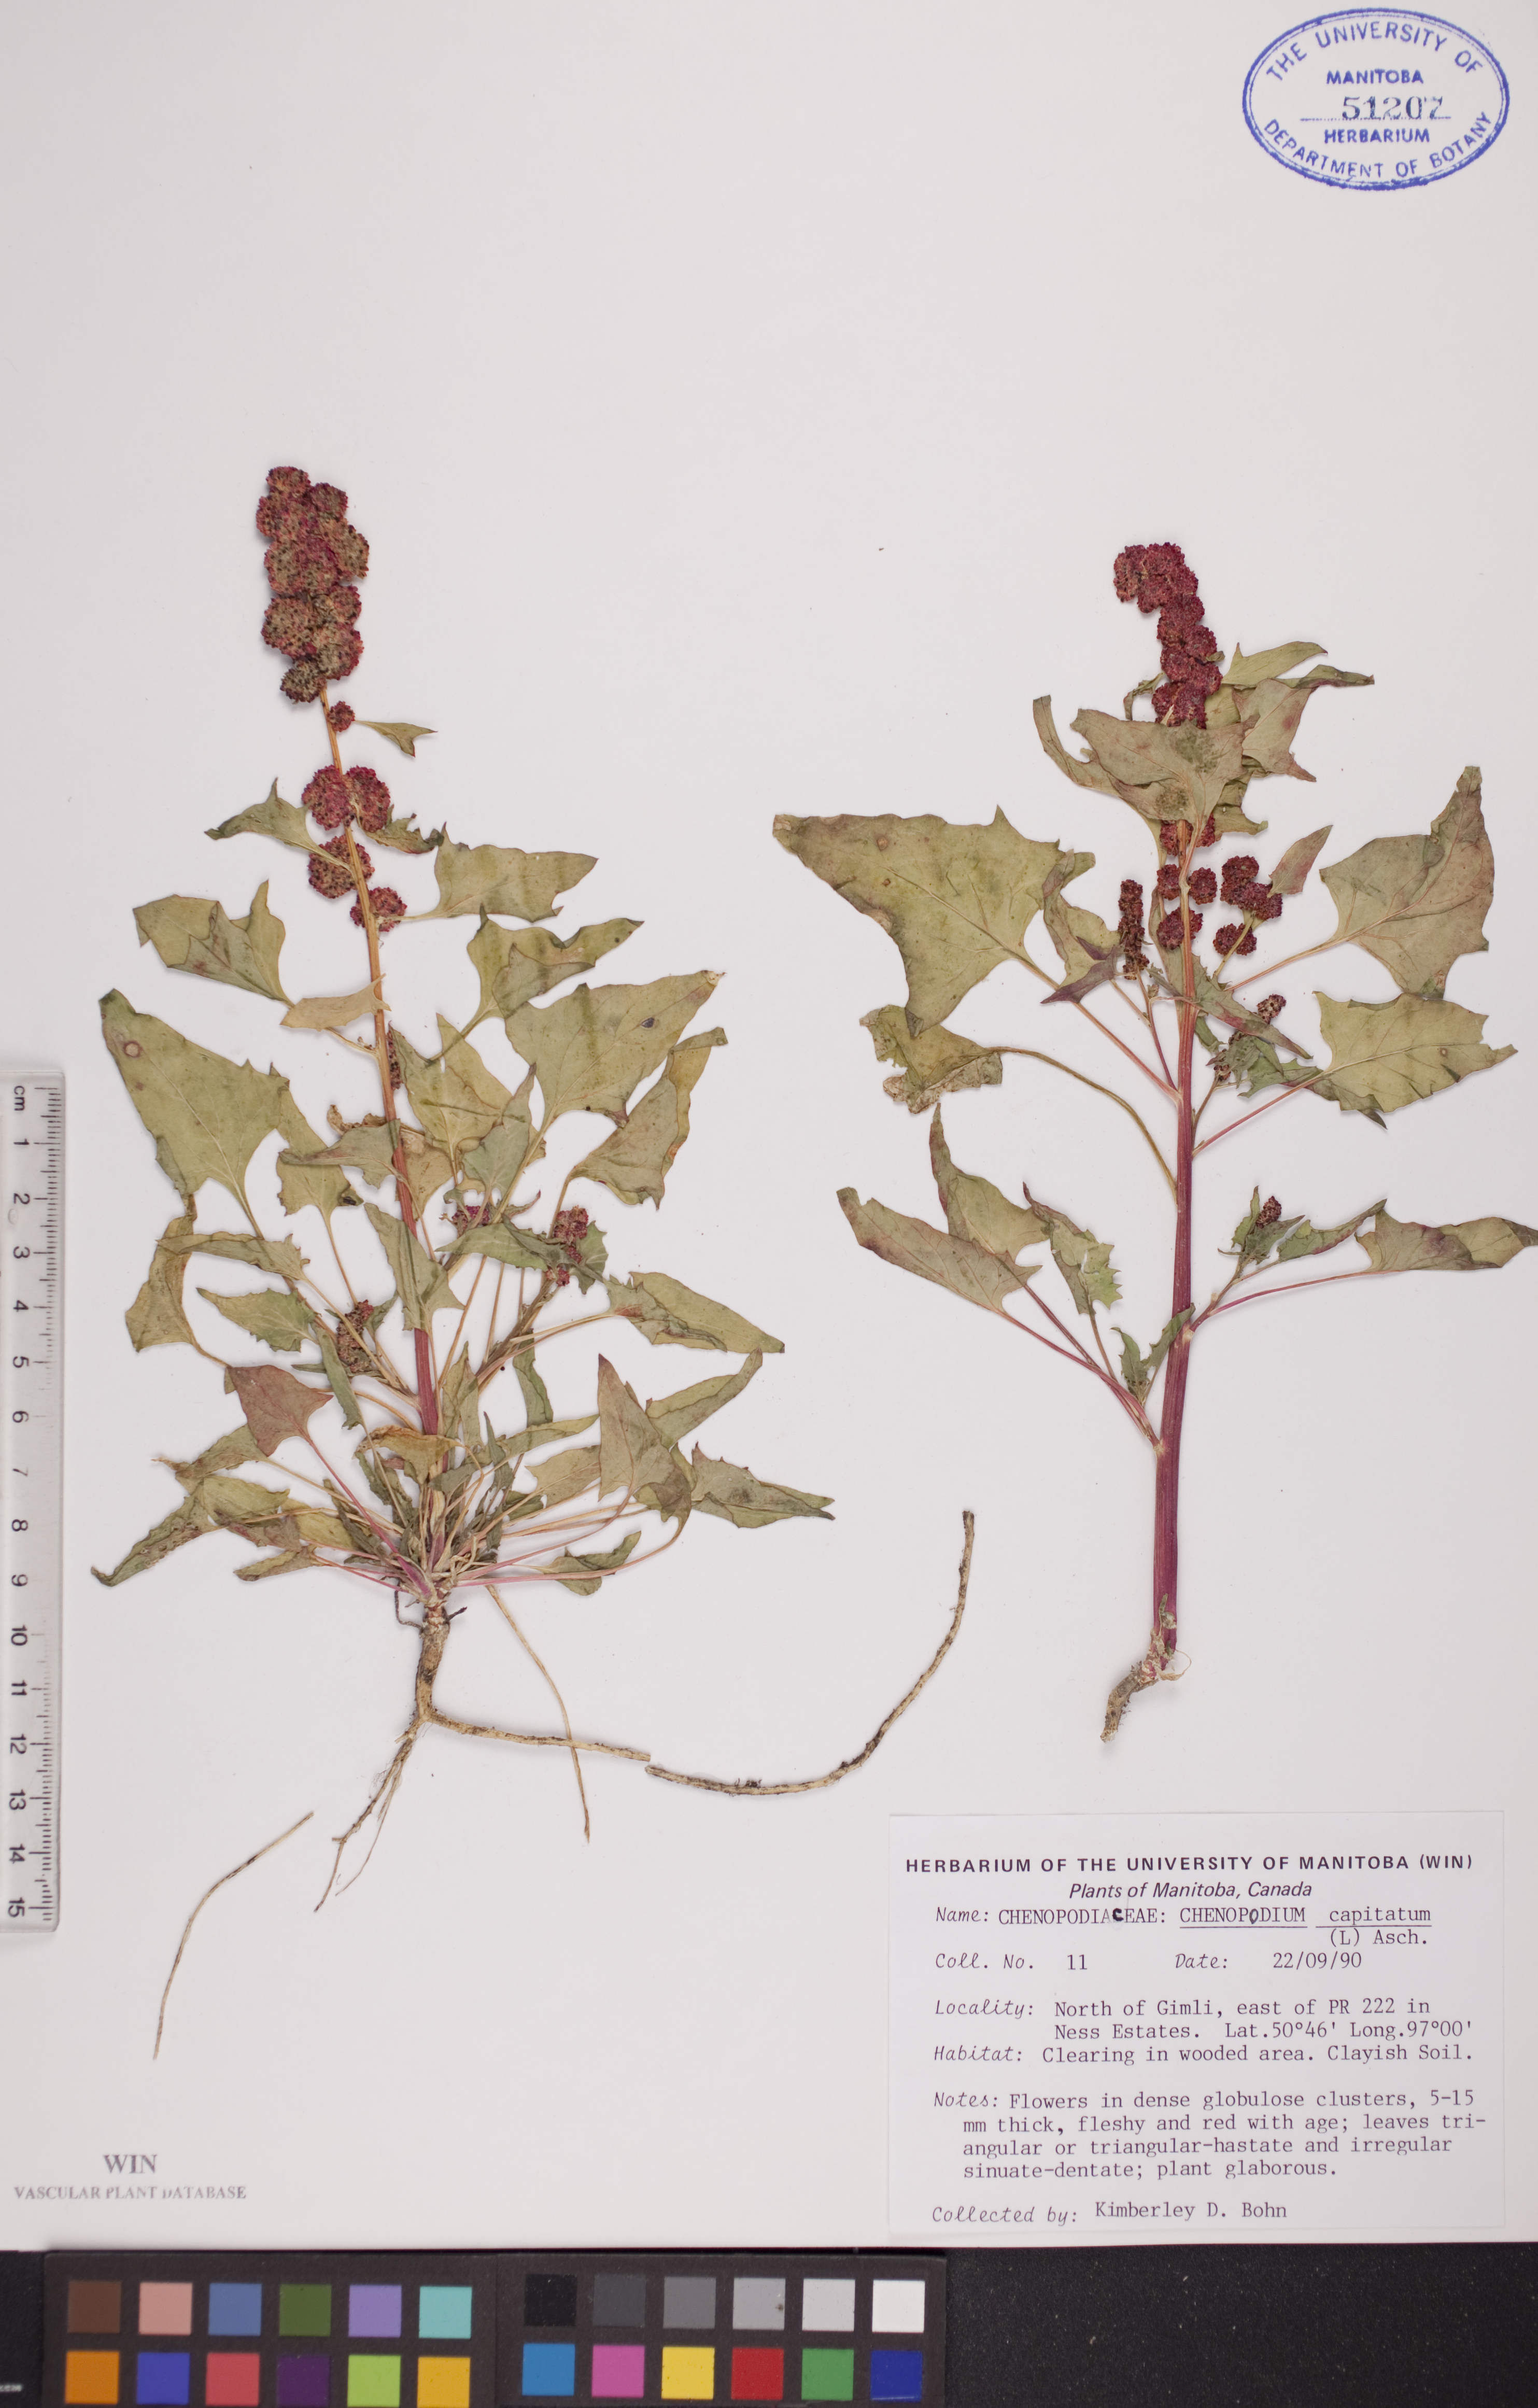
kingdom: Plantae
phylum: Tracheophyta
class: Magnoliopsida
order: Caryophyllales
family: Amaranthaceae
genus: Blitum
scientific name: Blitum capitatum
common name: Strawberry-blight
